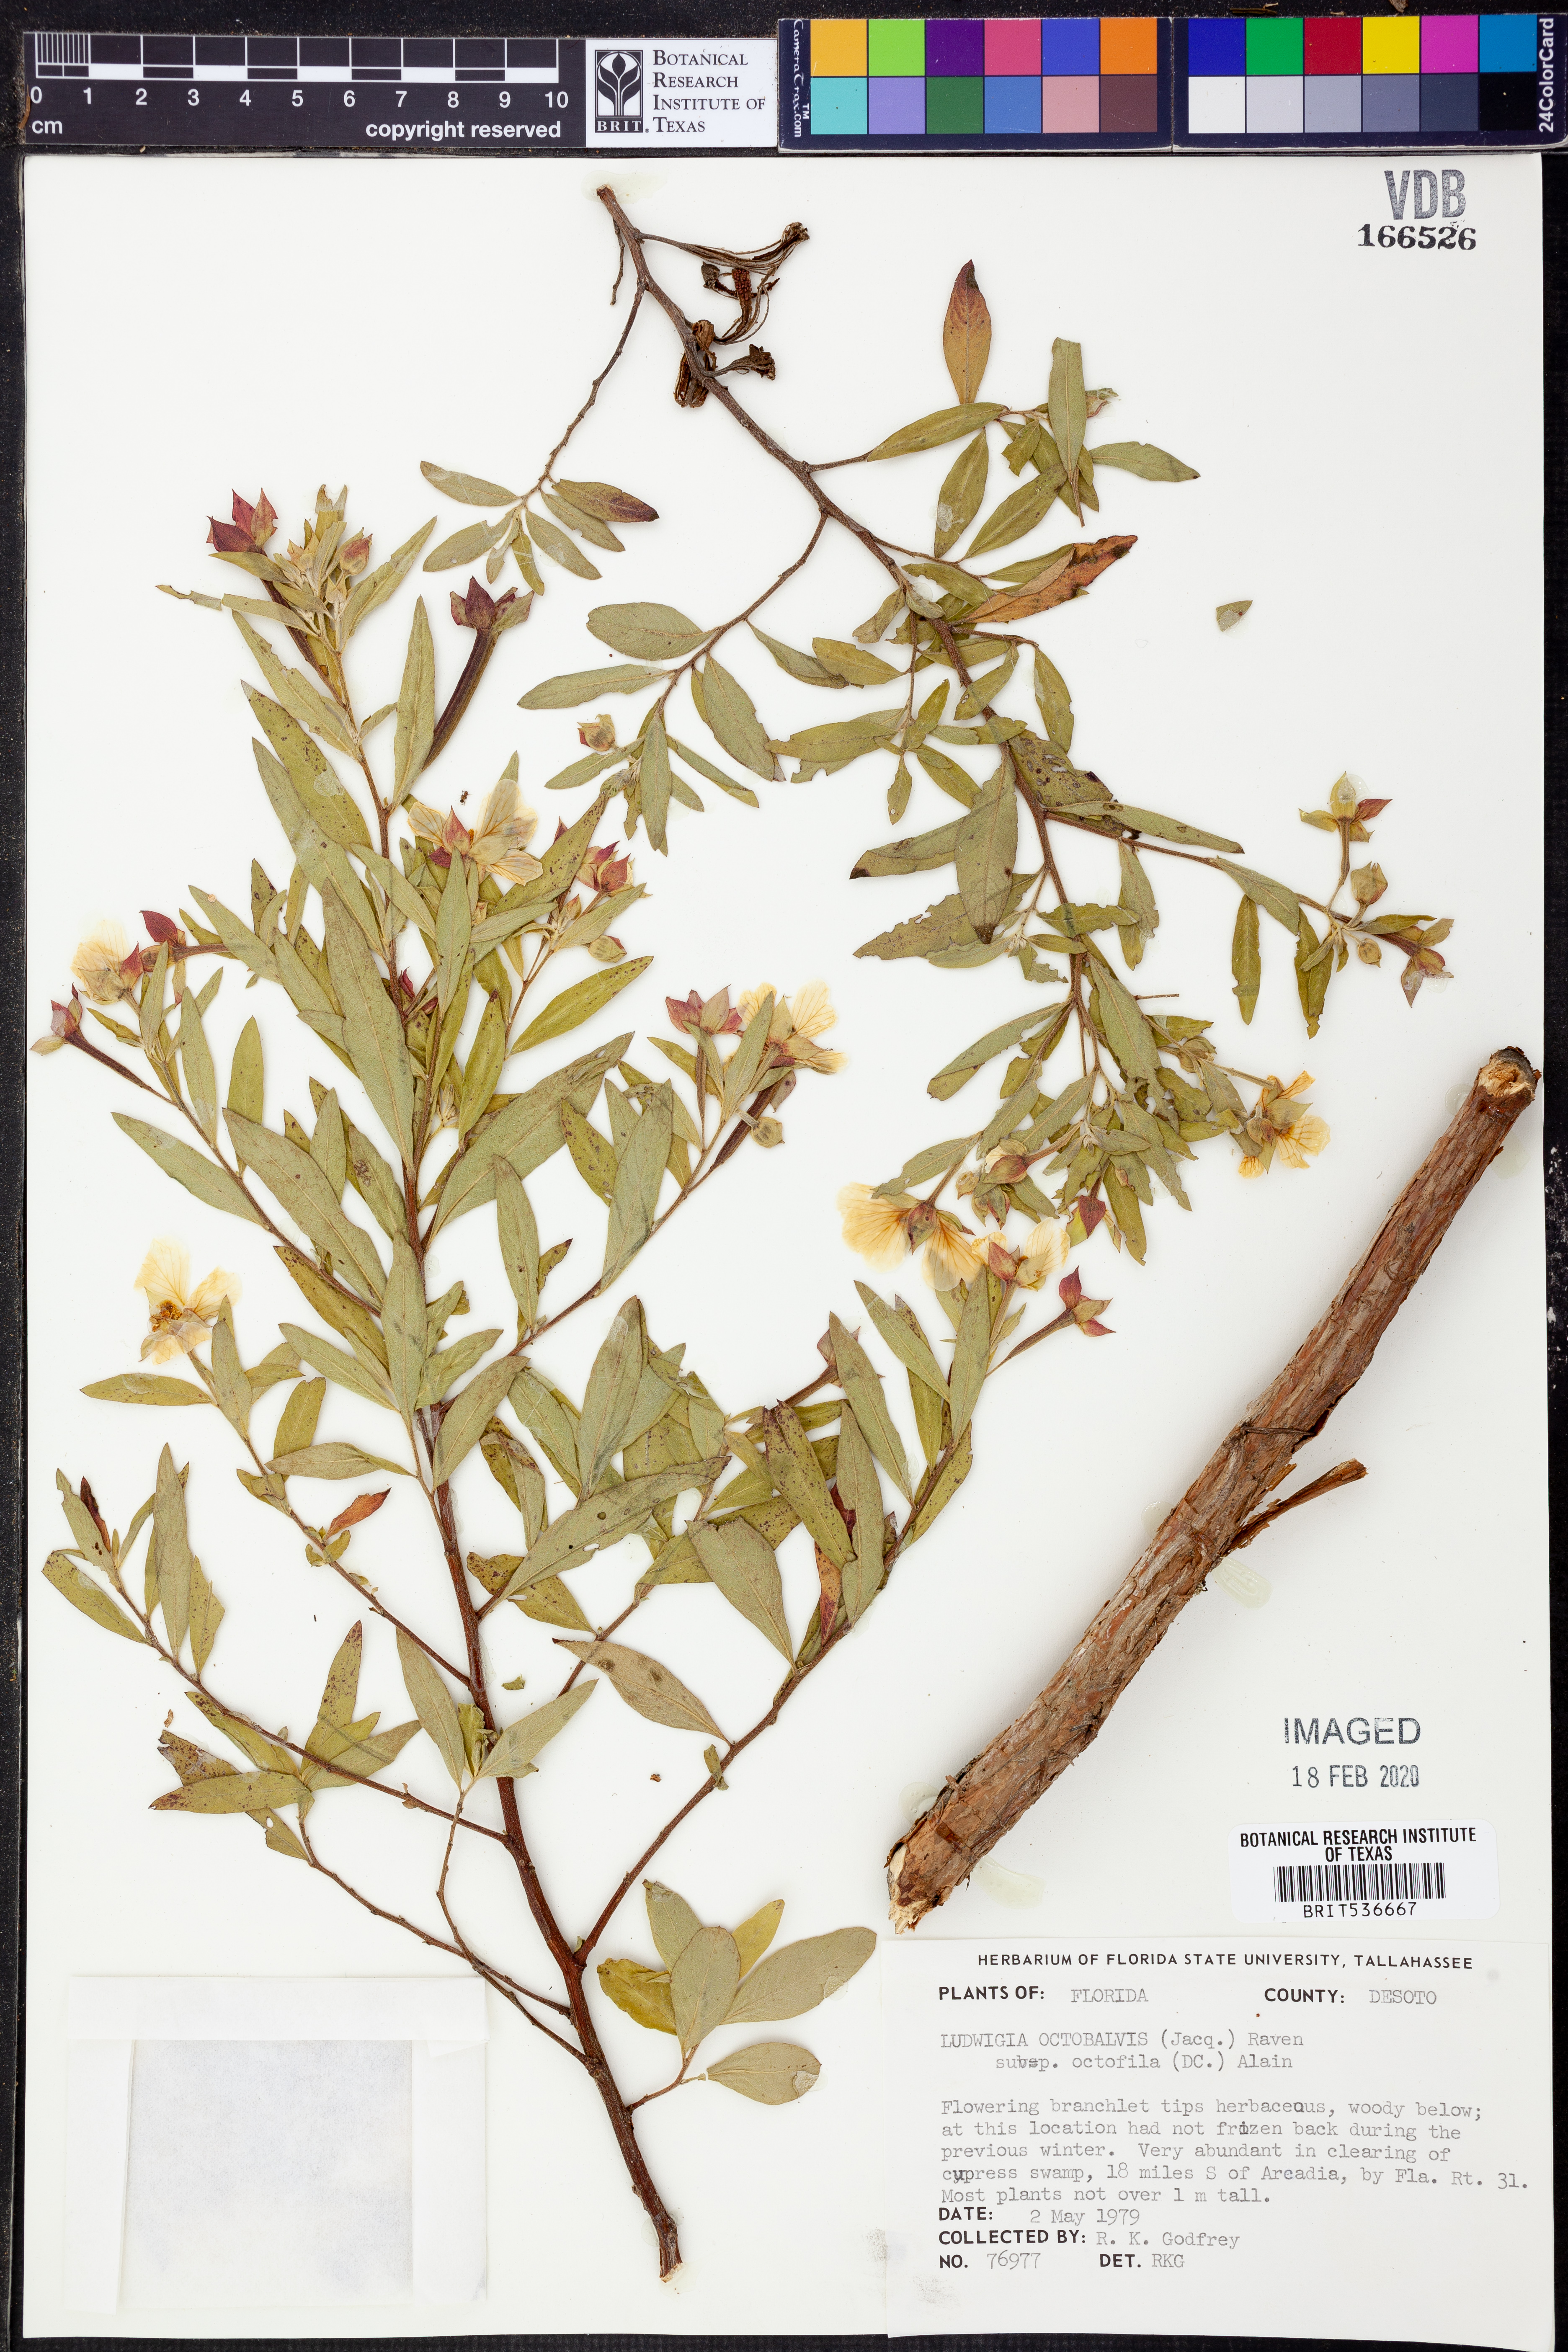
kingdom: Plantae
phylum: Tracheophyta
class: Magnoliopsida
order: Myrtales
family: Onagraceae
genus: Ludwigia
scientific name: Ludwigia octovalvis
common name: Water-primrose
